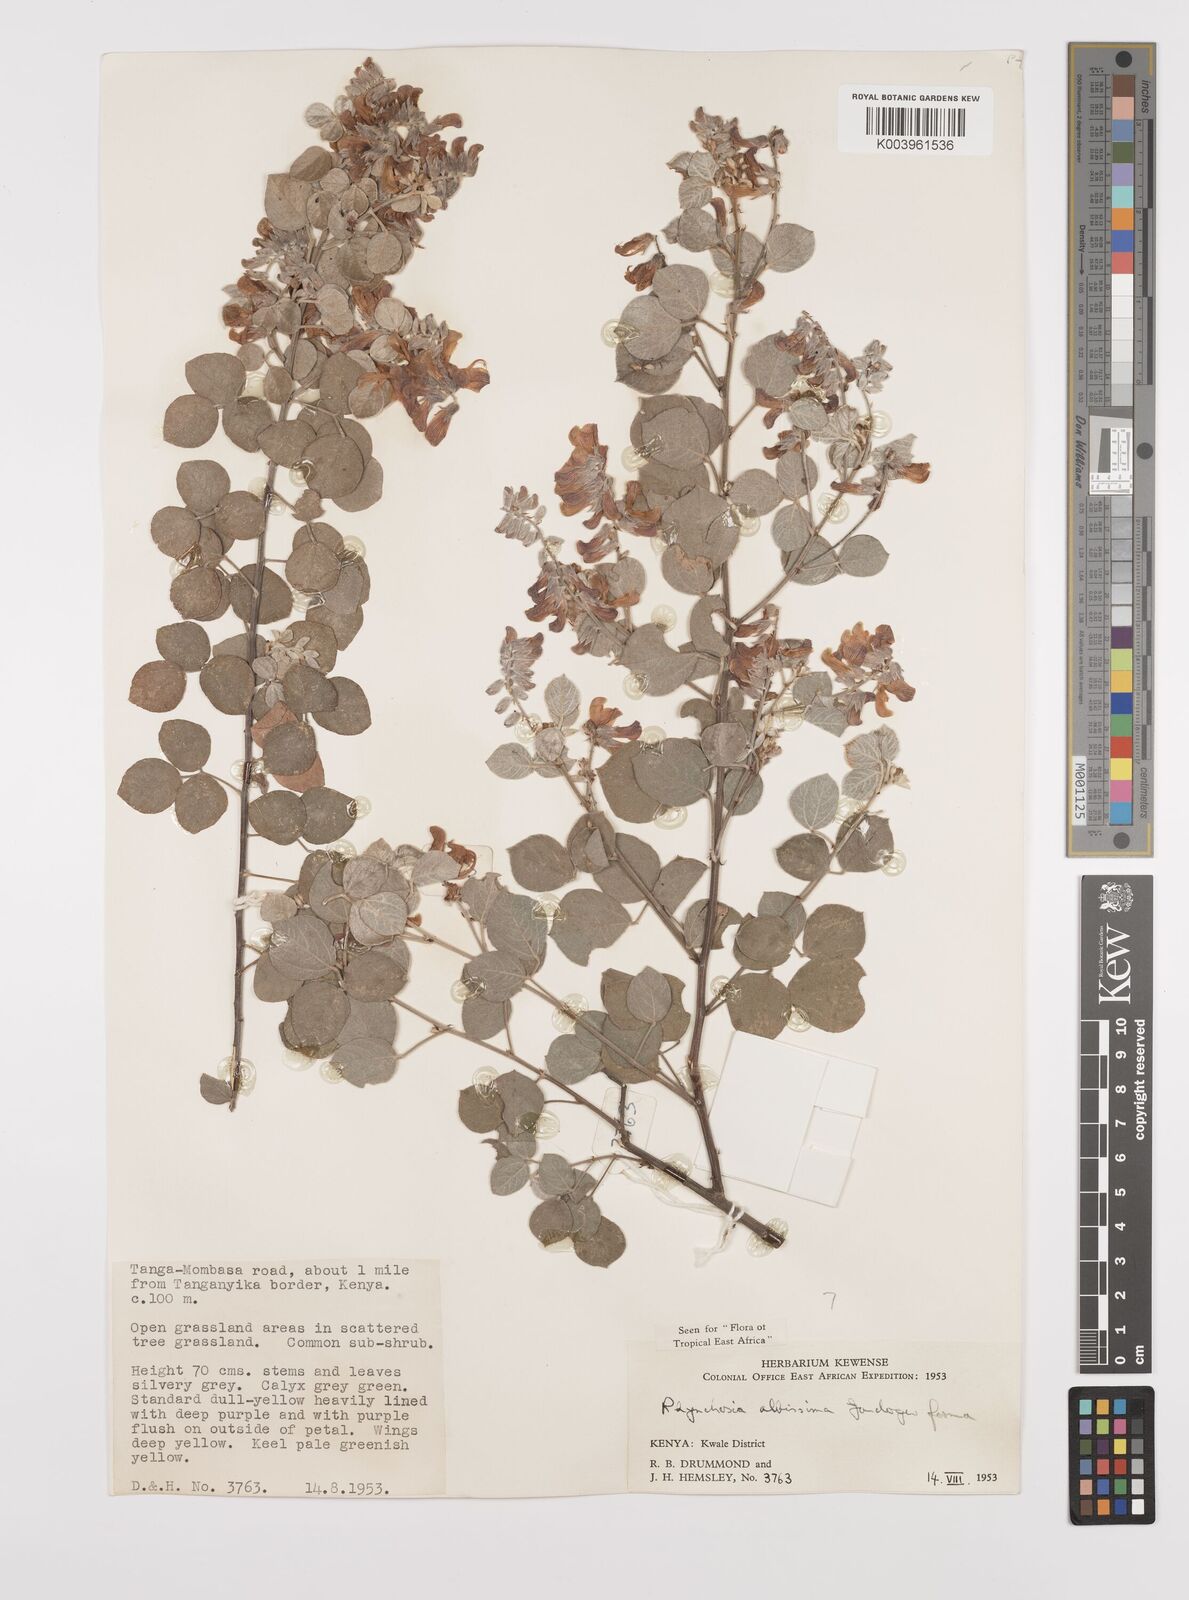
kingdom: Plantae
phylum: Tracheophyta
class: Magnoliopsida
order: Fabales
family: Fabaceae
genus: Rhynchosia
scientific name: Rhynchosia albissima
